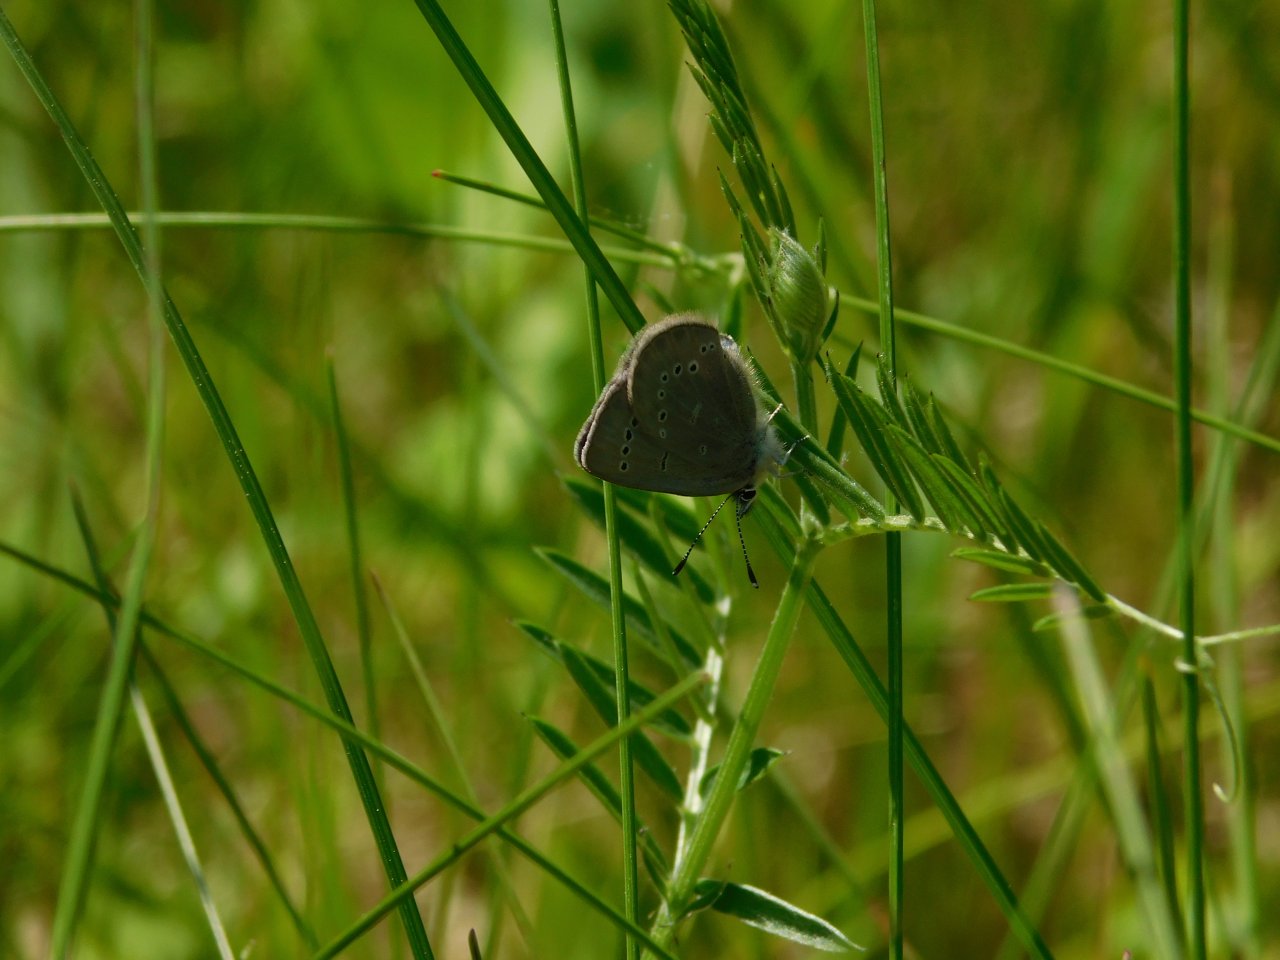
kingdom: Animalia
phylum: Arthropoda
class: Insecta
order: Lepidoptera
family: Lycaenidae
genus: Glaucopsyche
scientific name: Glaucopsyche lygdamus
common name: Silvery Blue
